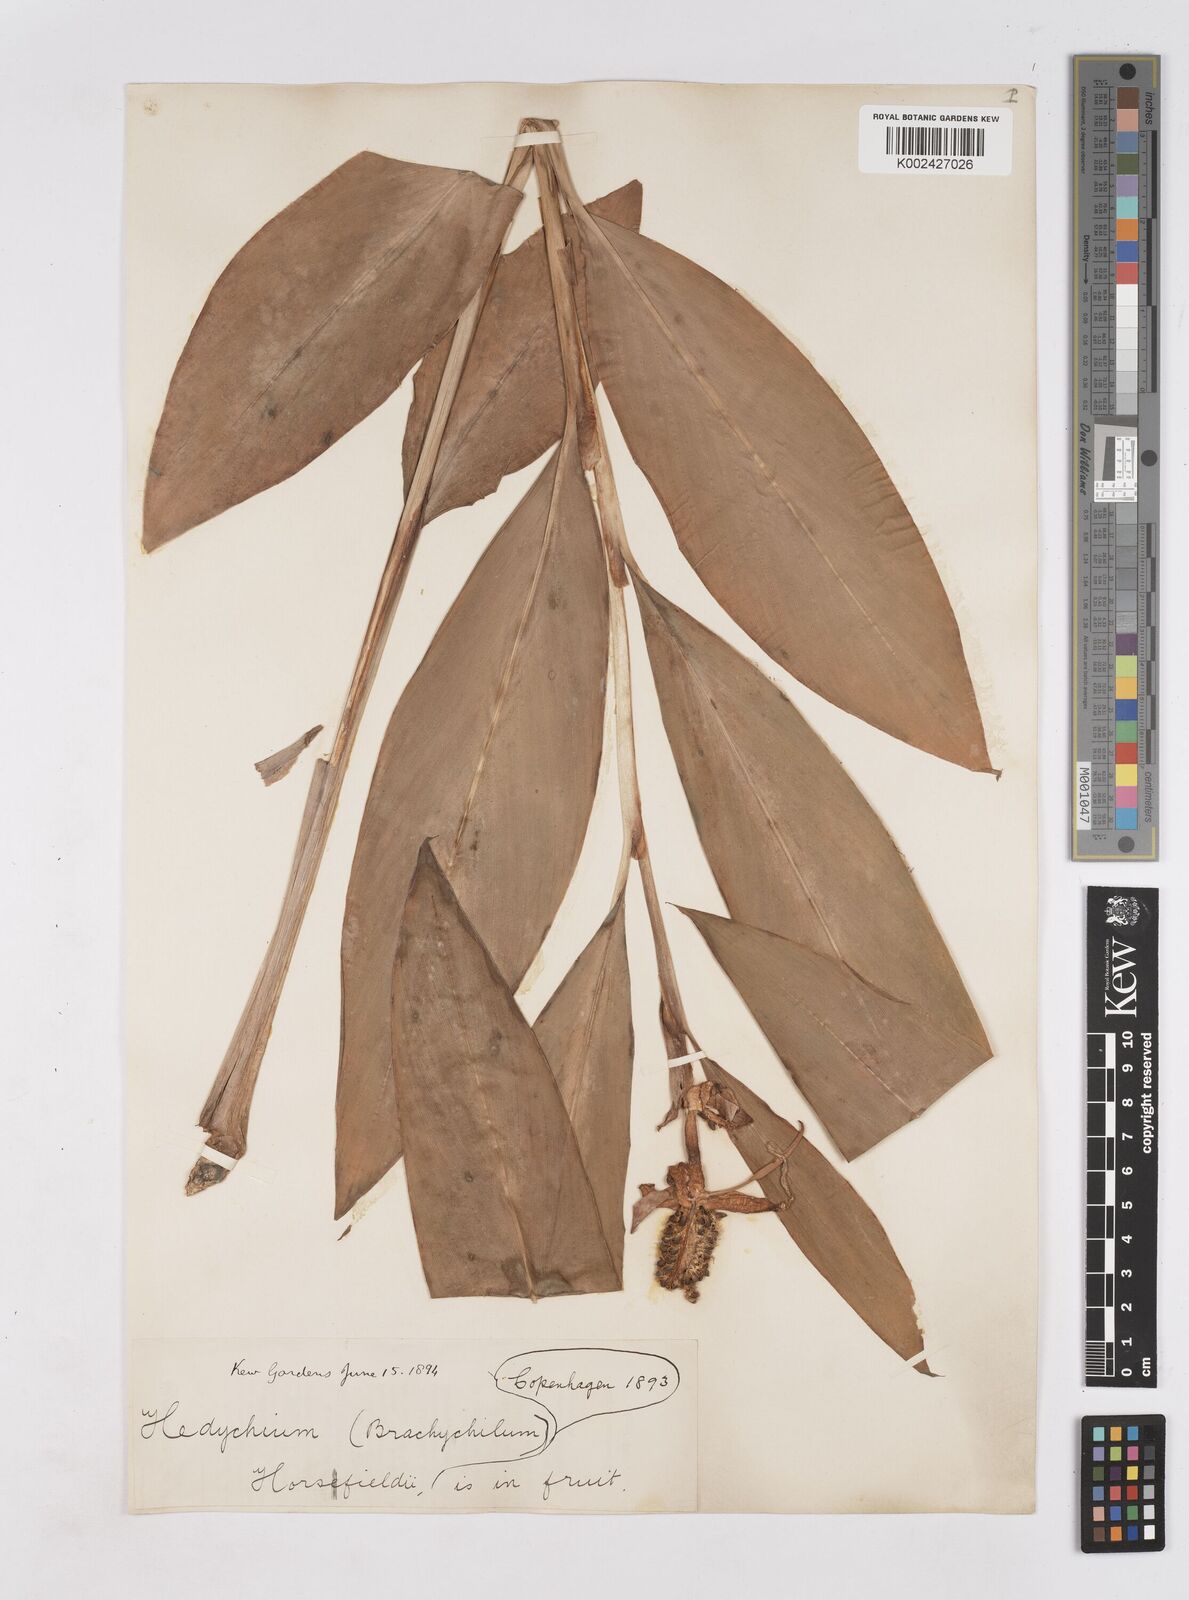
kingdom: Plantae
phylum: Tracheophyta
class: Liliopsida
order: Zingiberales
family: Zingiberaceae
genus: Hedychium
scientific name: Hedychium horsfieldii
